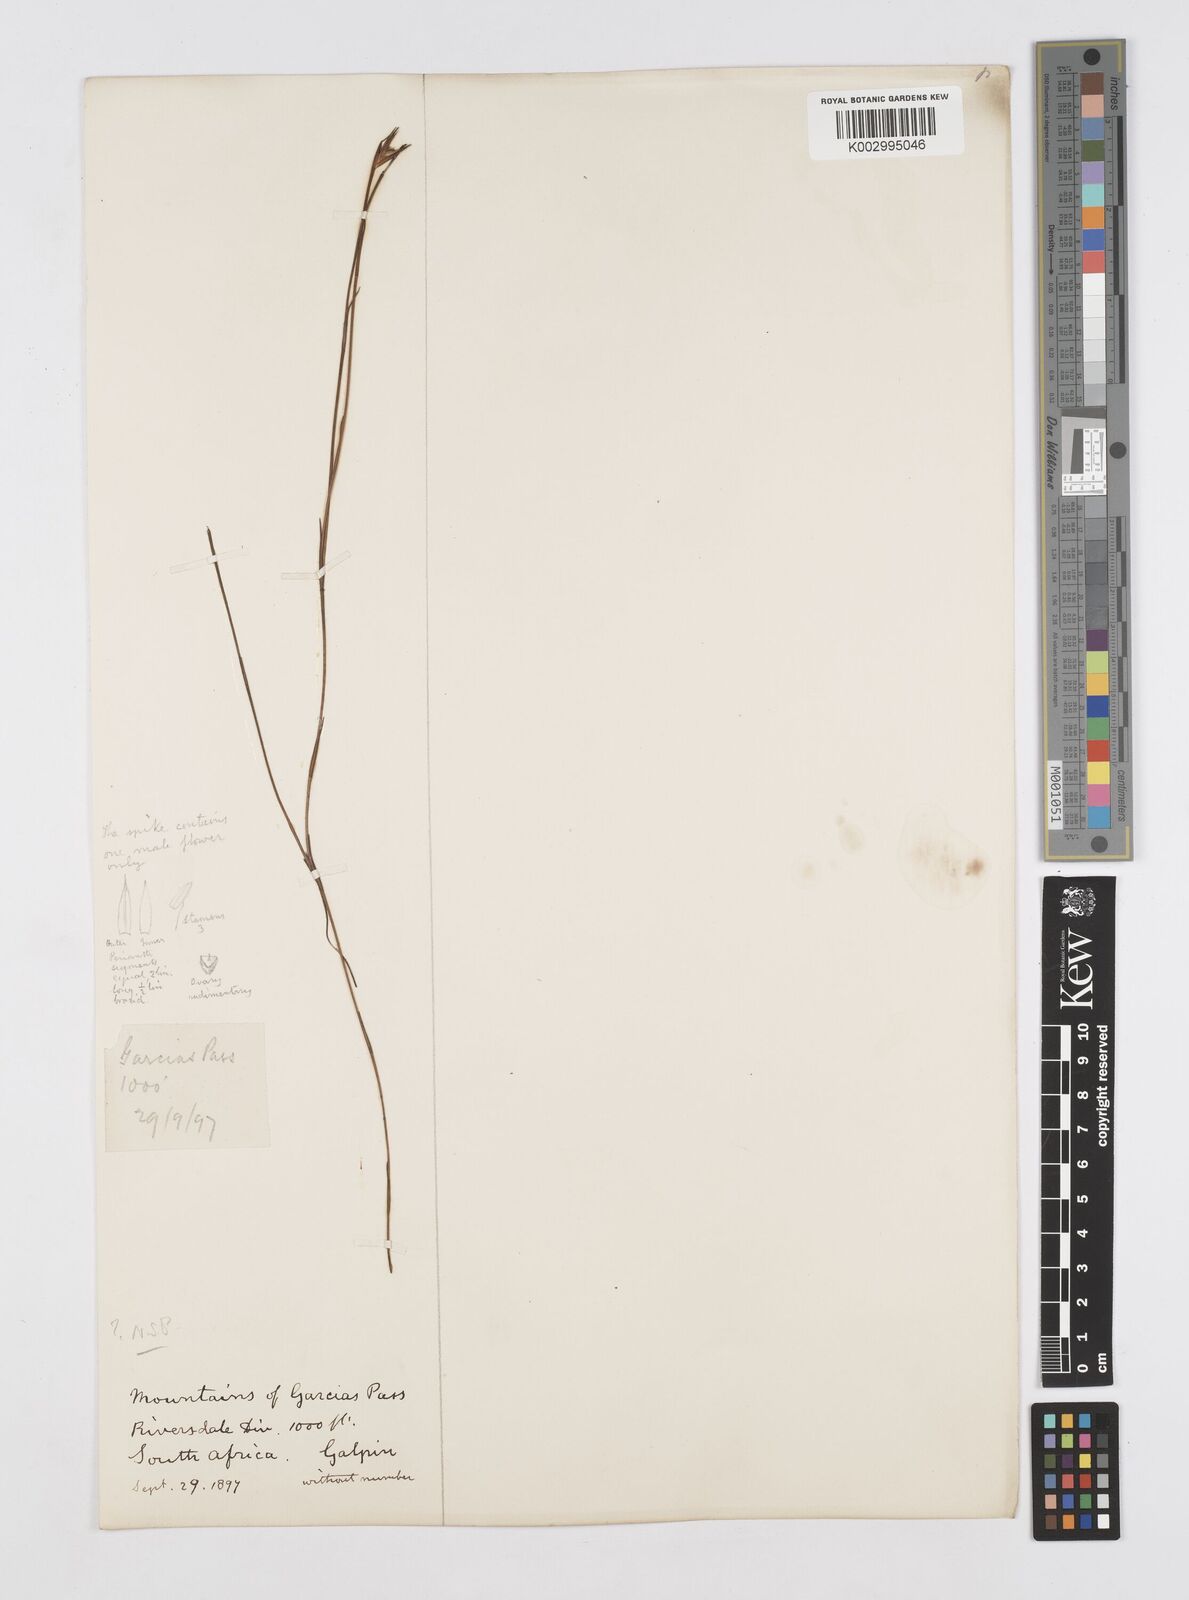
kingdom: Plantae
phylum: Tracheophyta
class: Liliopsida
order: Poales
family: Restionaceae
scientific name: Restionaceae
